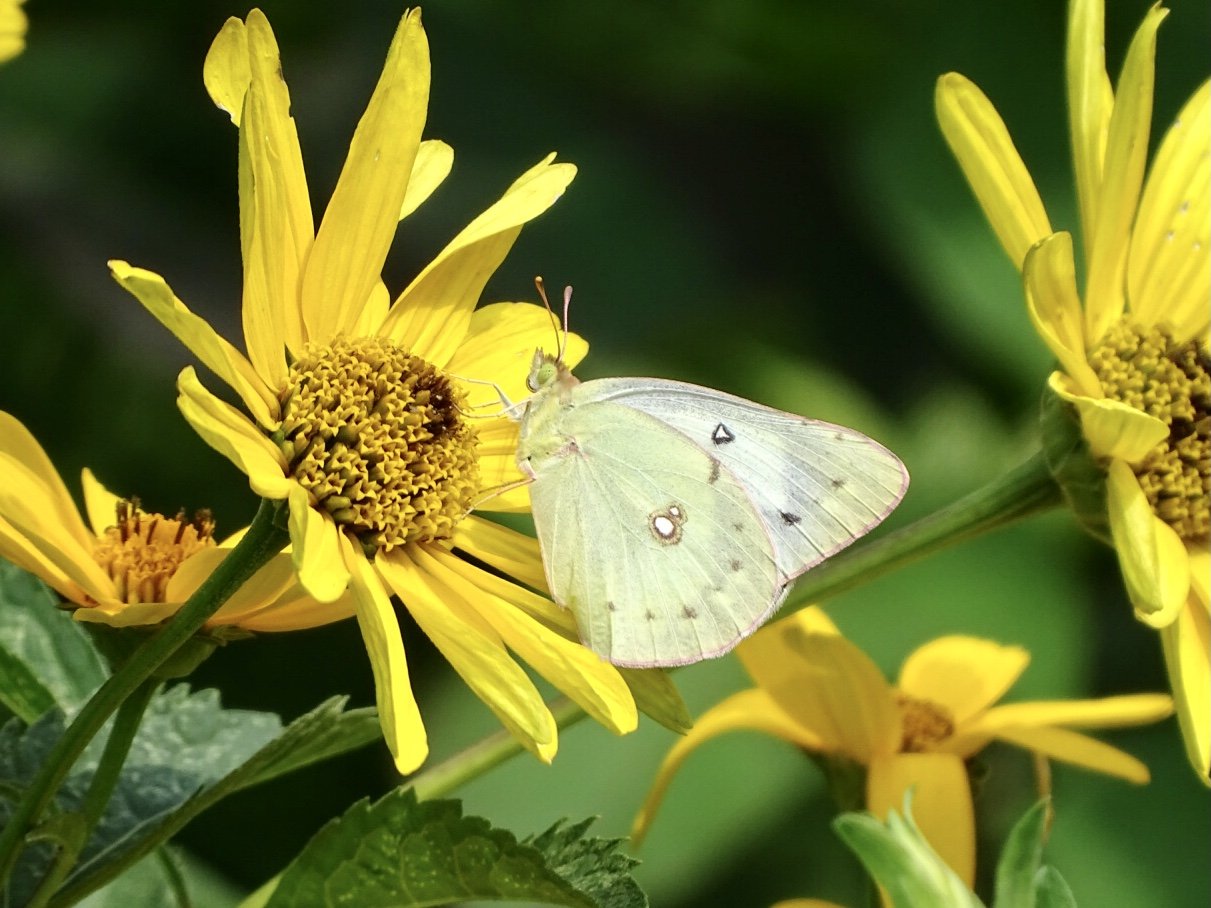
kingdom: Animalia
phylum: Arthropoda
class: Insecta
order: Lepidoptera
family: Pieridae
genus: Colias
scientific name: Colias philodice
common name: Clouded Sulphur
